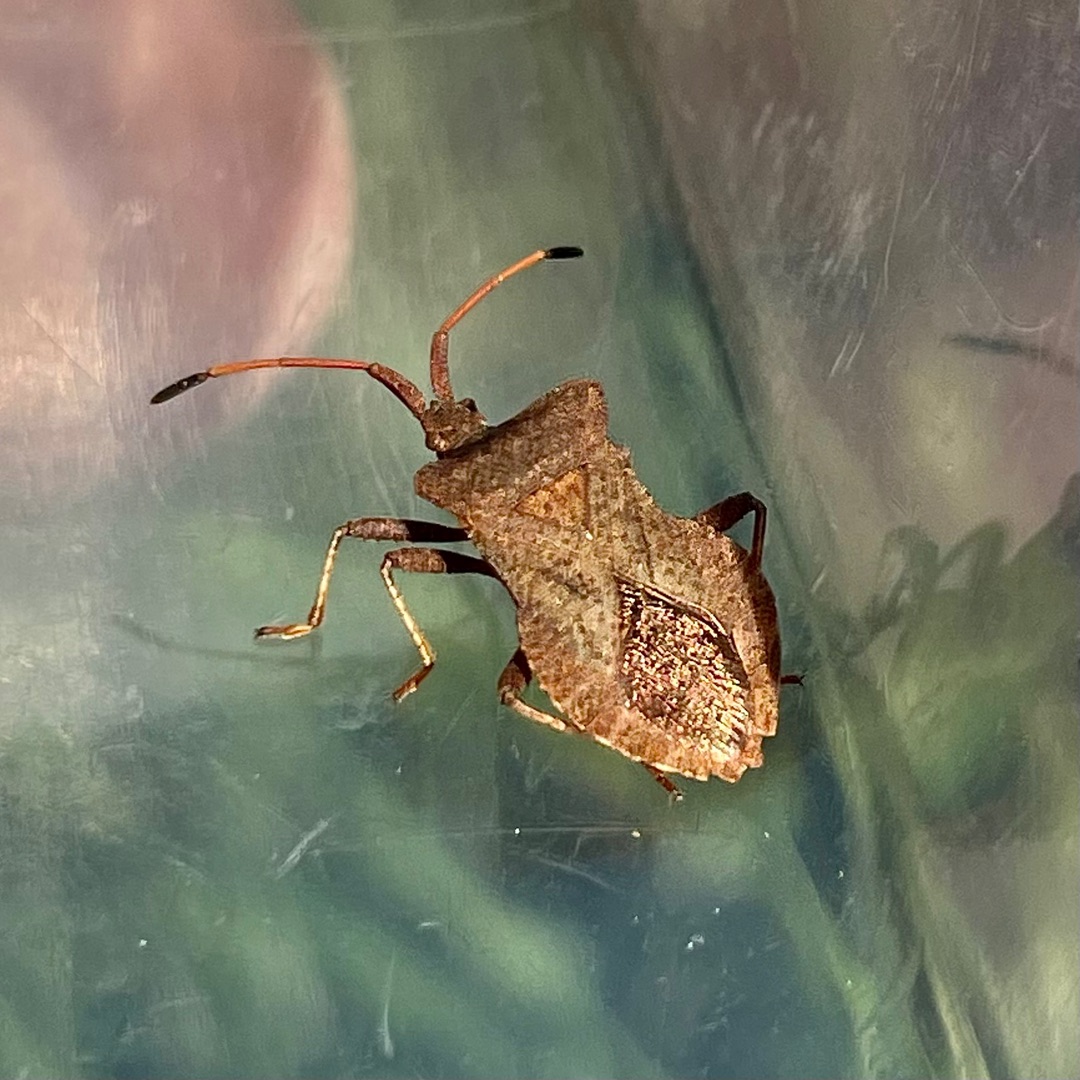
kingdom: Animalia
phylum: Arthropoda
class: Insecta
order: Hemiptera
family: Coreidae
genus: Coreus
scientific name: Coreus marginatus
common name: Skræppetæge
